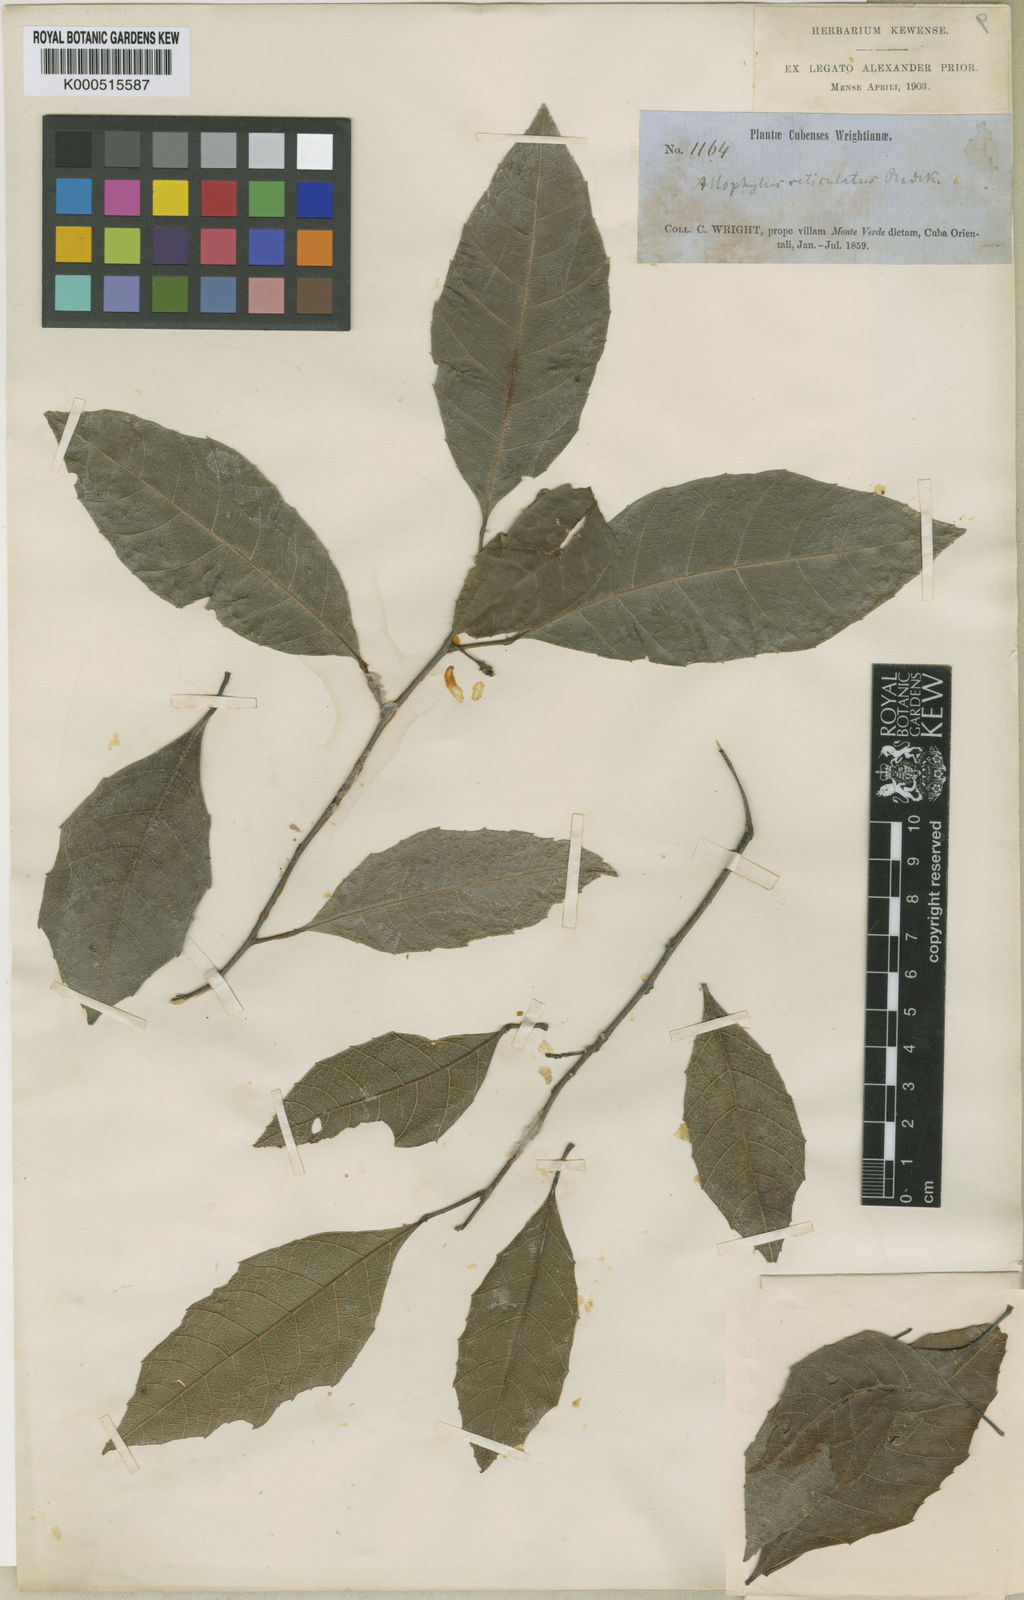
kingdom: Plantae
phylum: Tracheophyta
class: Magnoliopsida
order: Sapindales
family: Sapindaceae
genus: Allophylus
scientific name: Allophylus reticulatus
